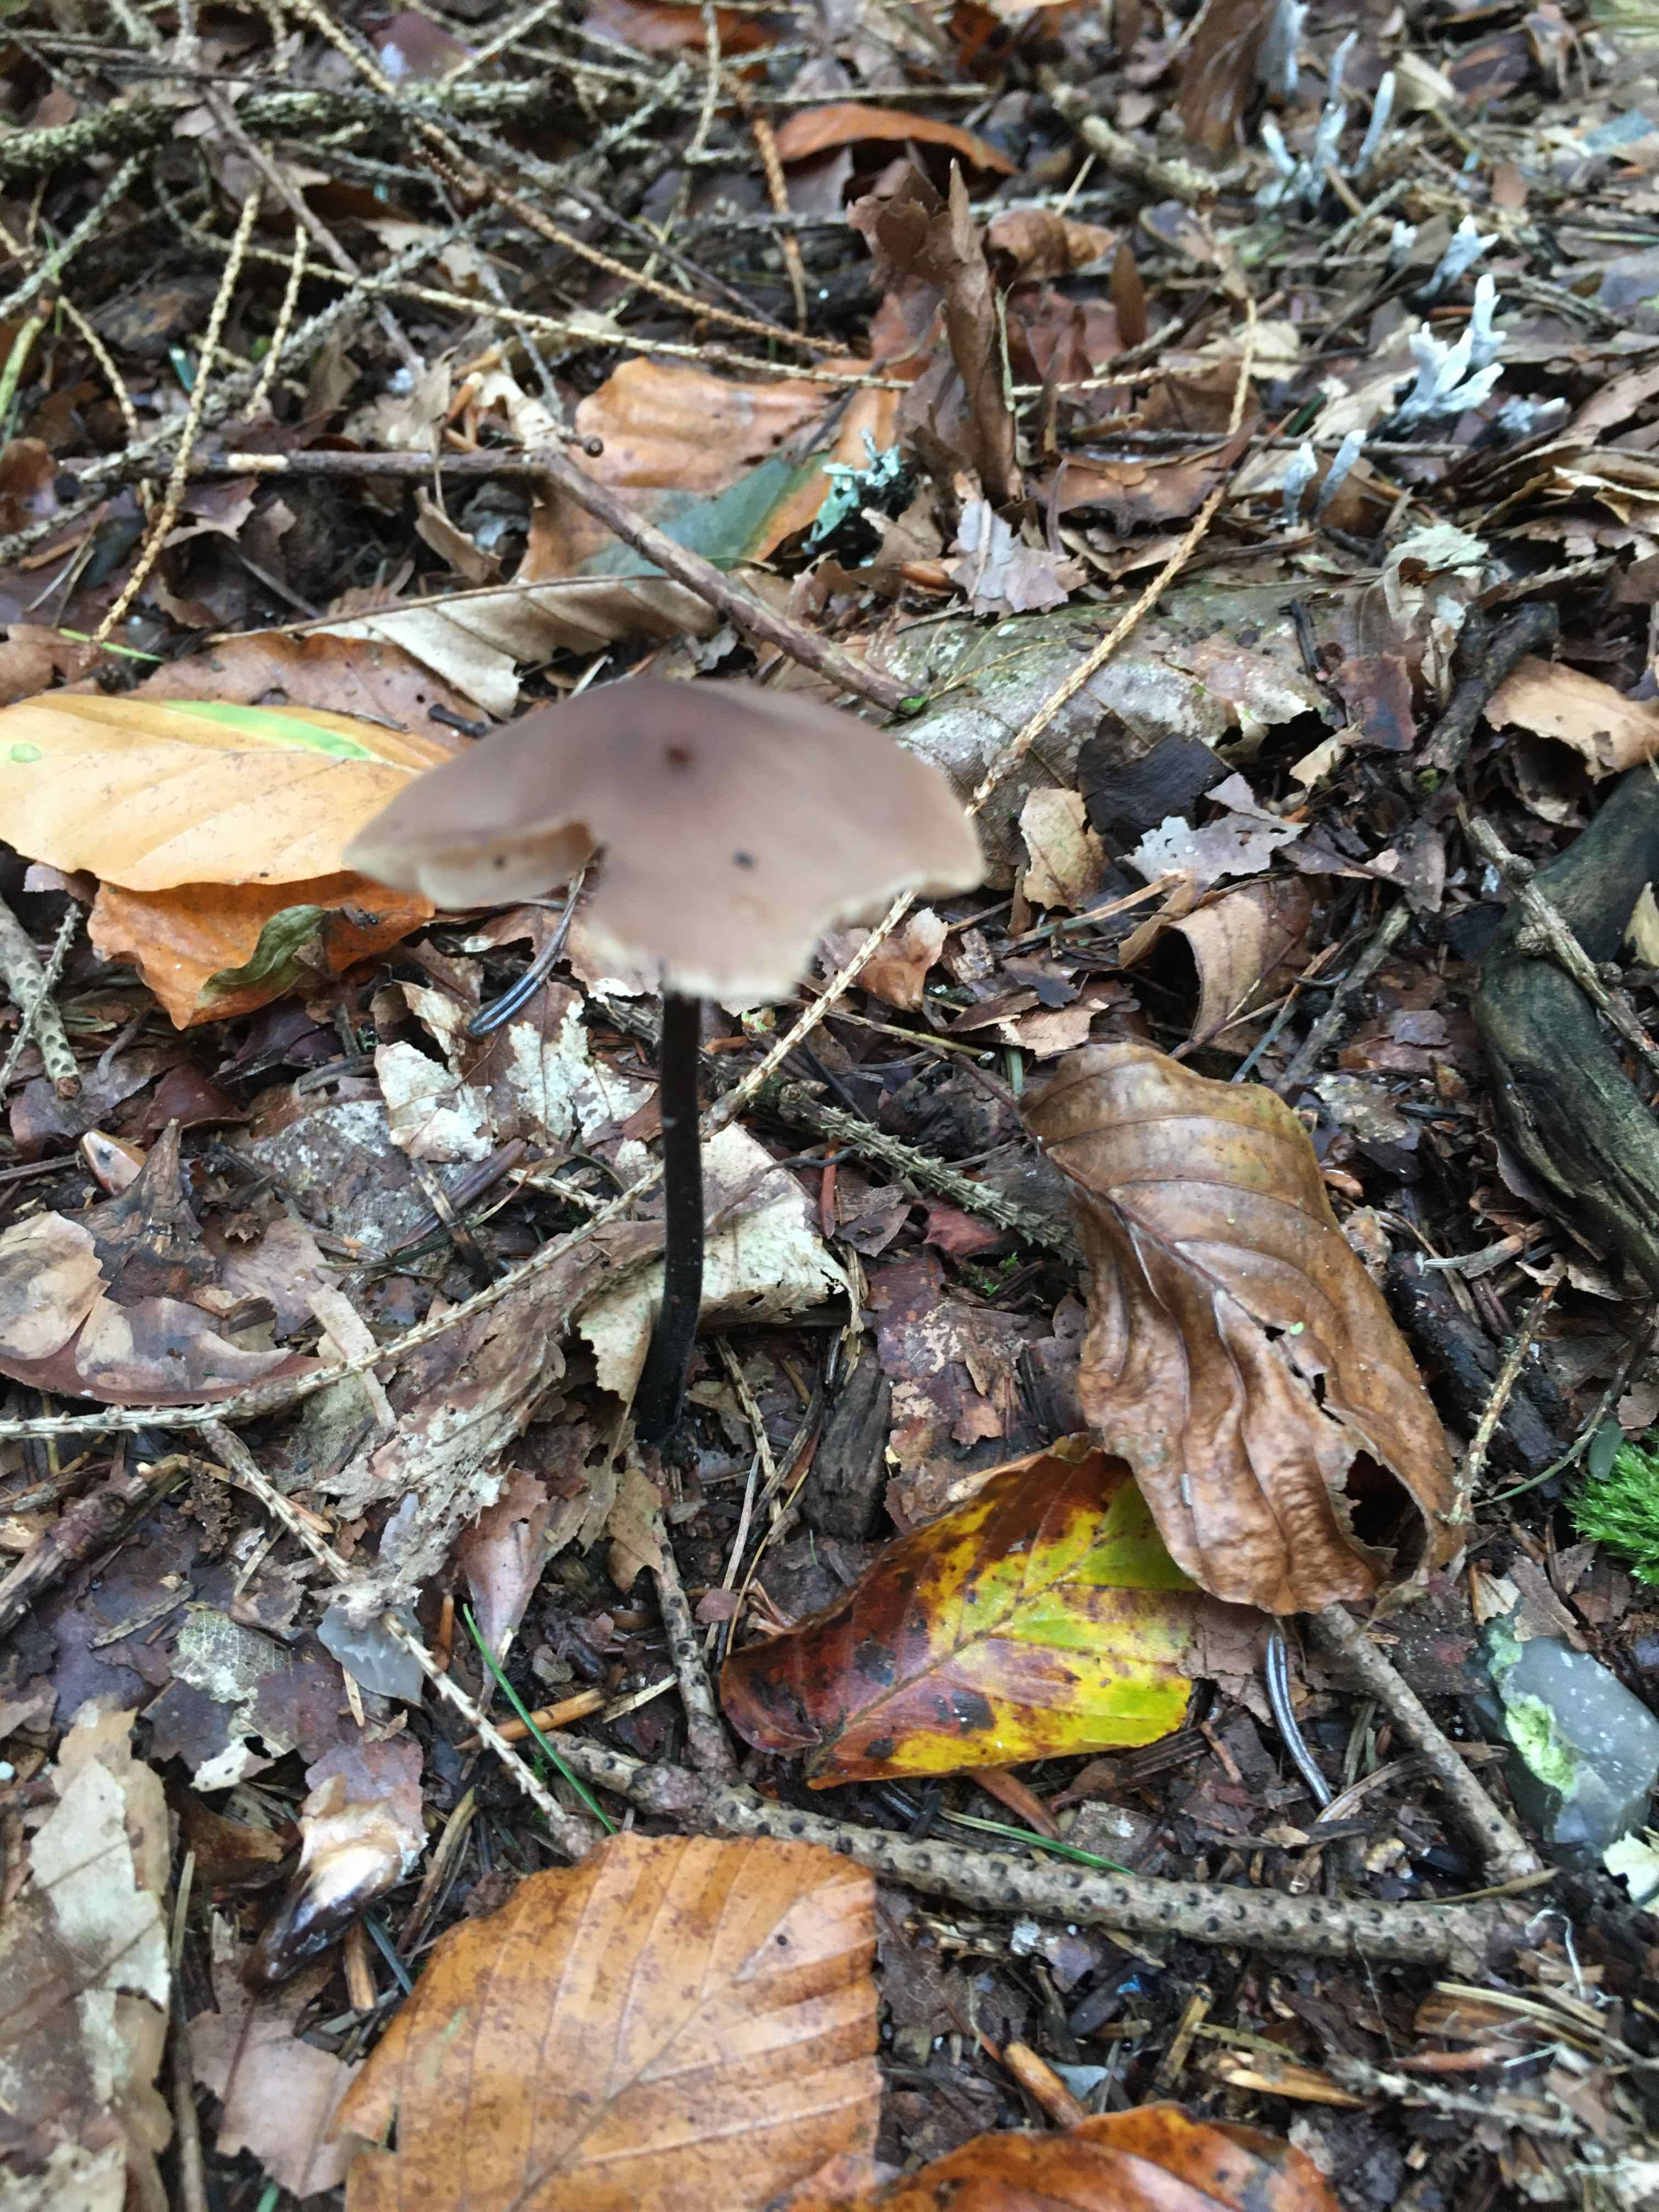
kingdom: Fungi
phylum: Basidiomycota
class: Agaricomycetes
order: Agaricales
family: Omphalotaceae
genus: Mycetinis
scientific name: Mycetinis alliaceus
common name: stor løghat
